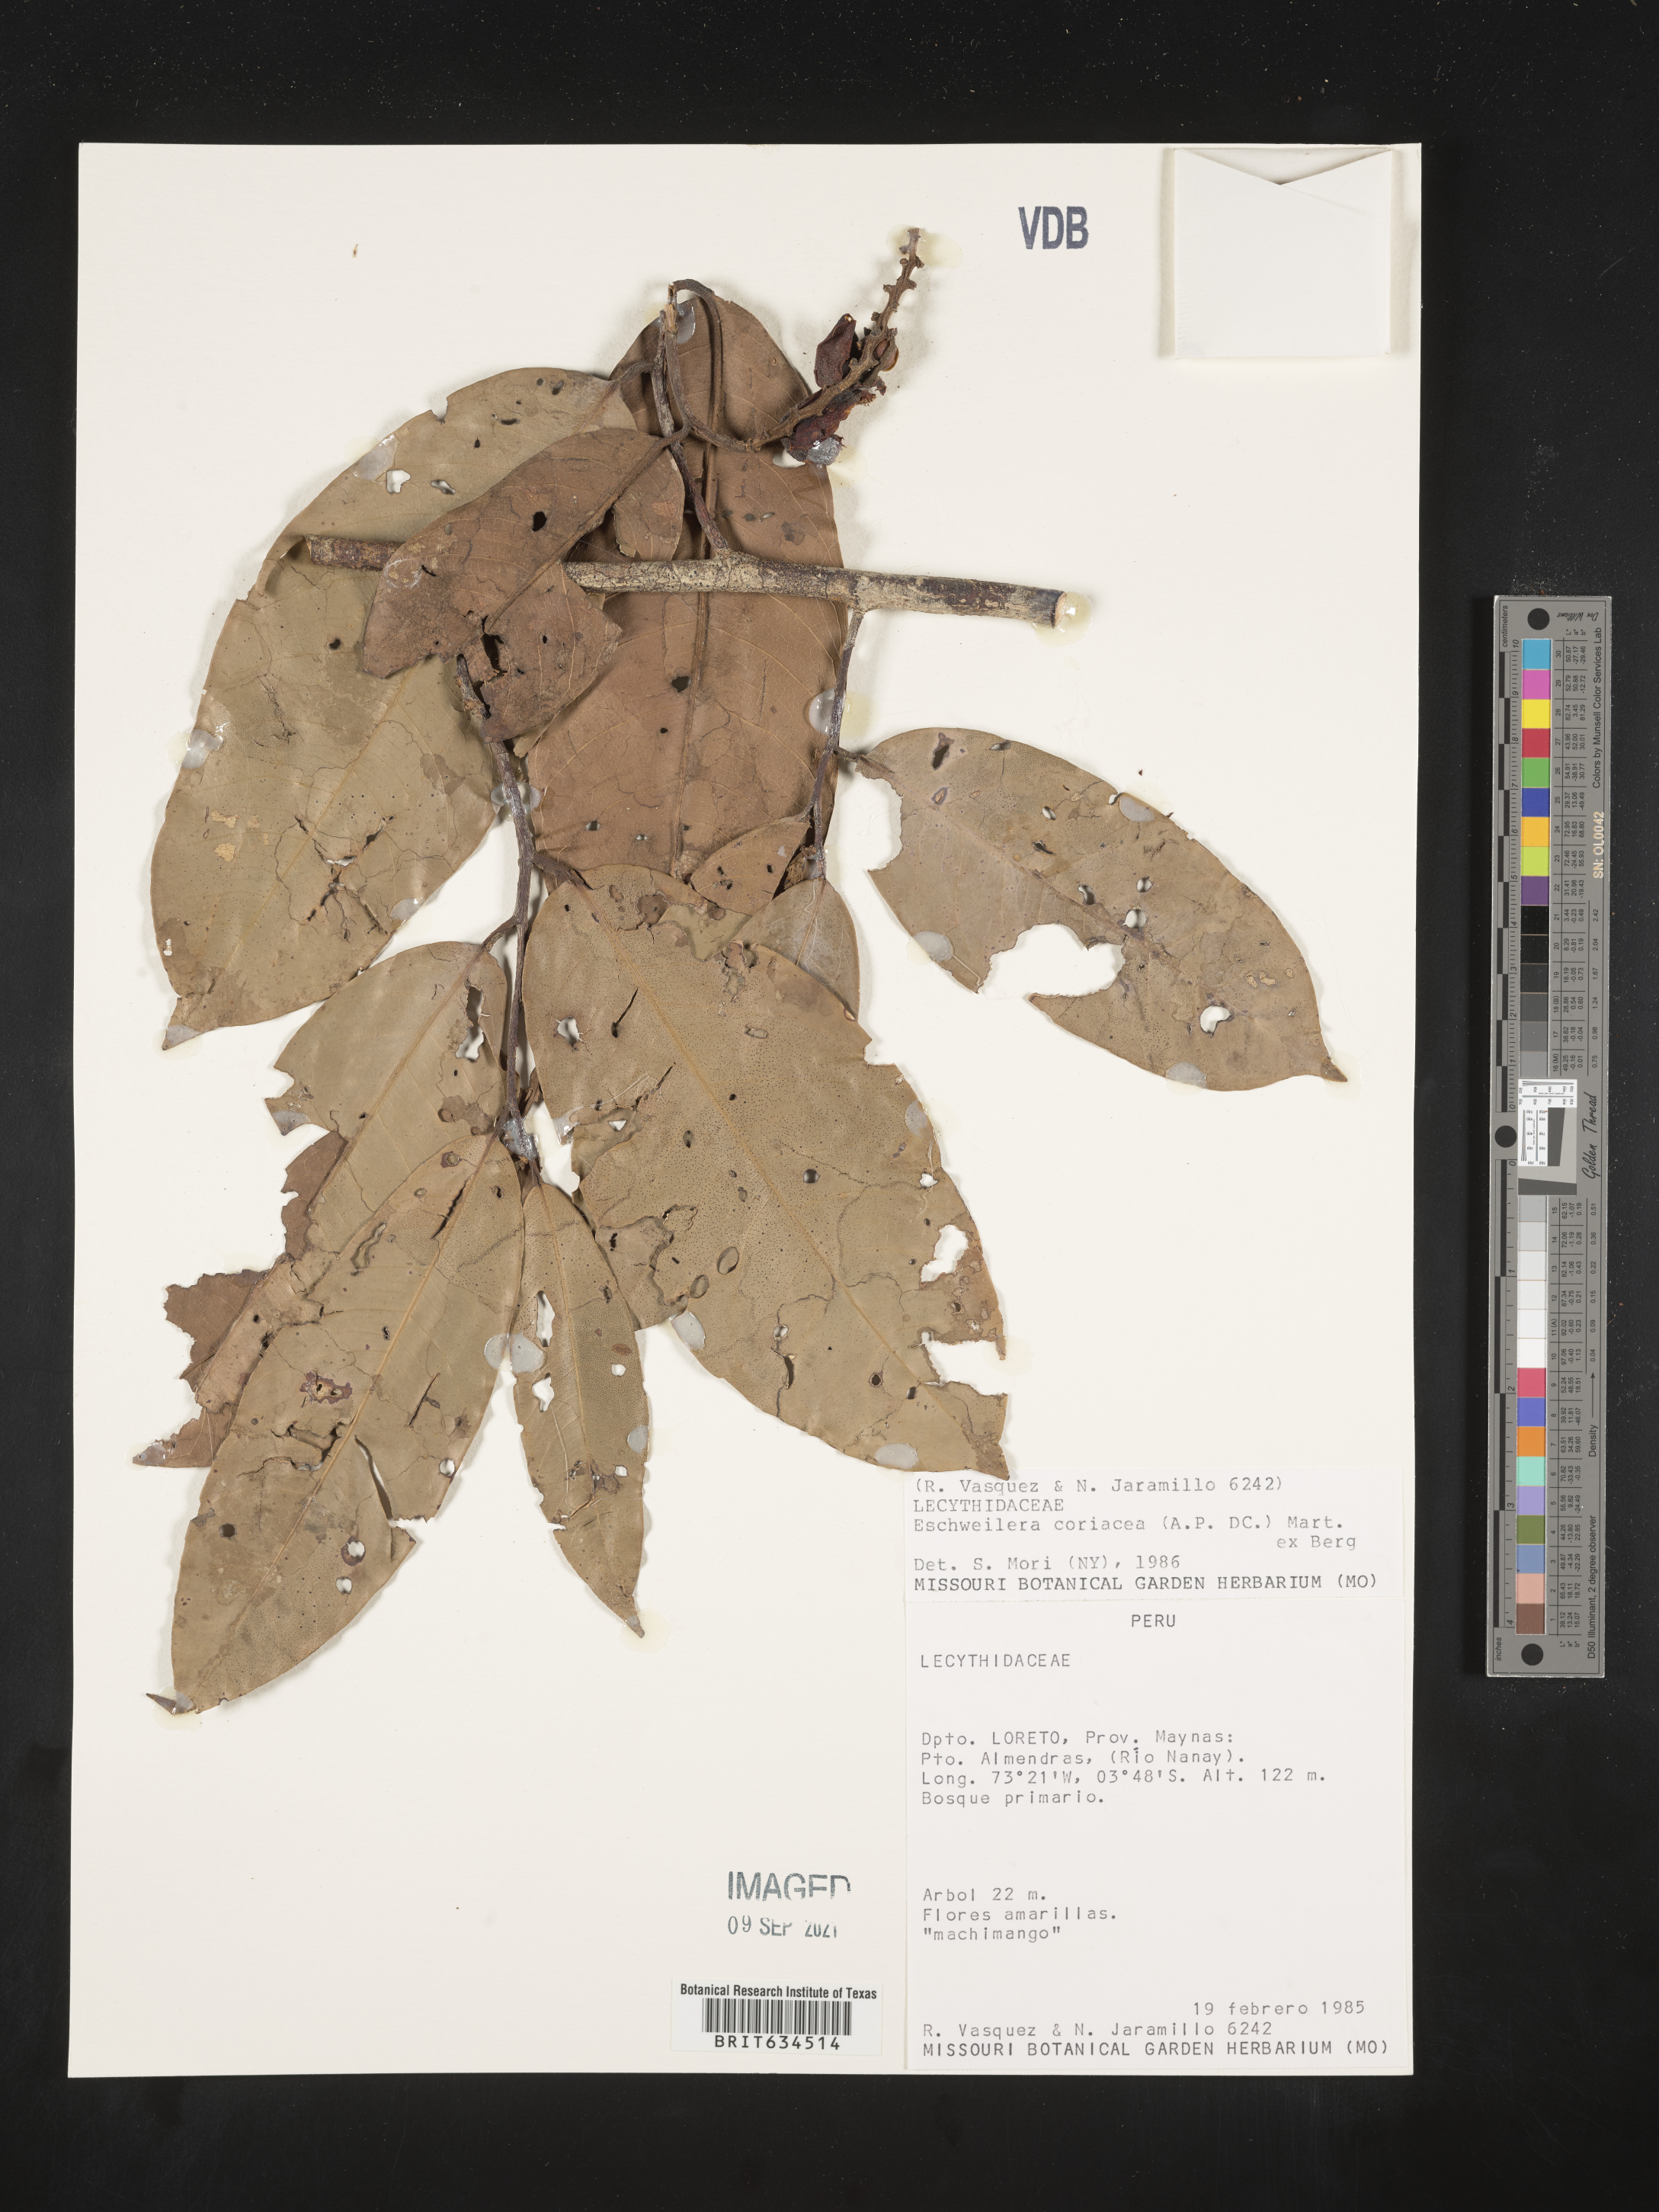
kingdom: Plantae
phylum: Tracheophyta
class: Magnoliopsida
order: Ericales
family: Lecythidaceae
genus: Eschweilera
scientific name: Eschweilera
